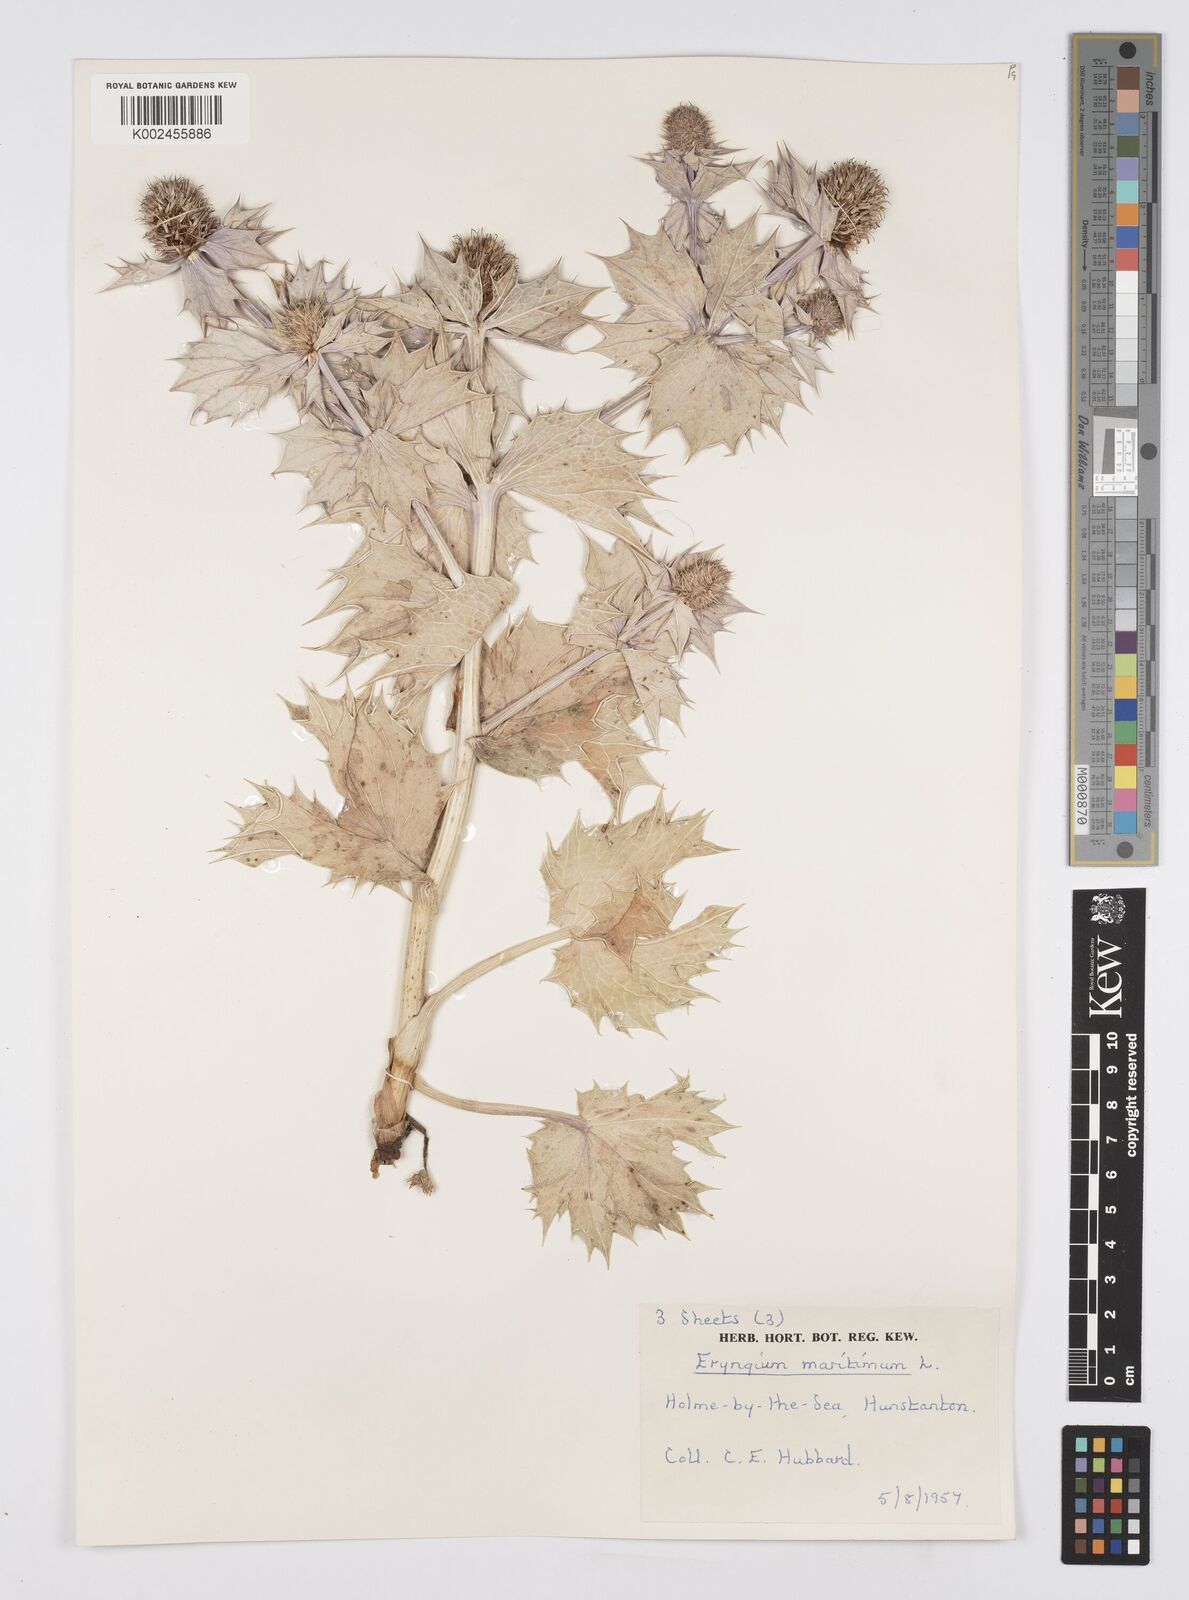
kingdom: Plantae
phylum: Tracheophyta
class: Magnoliopsida
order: Apiales
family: Apiaceae
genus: Eryngium
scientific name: Eryngium maritimum
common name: Sea-holly
